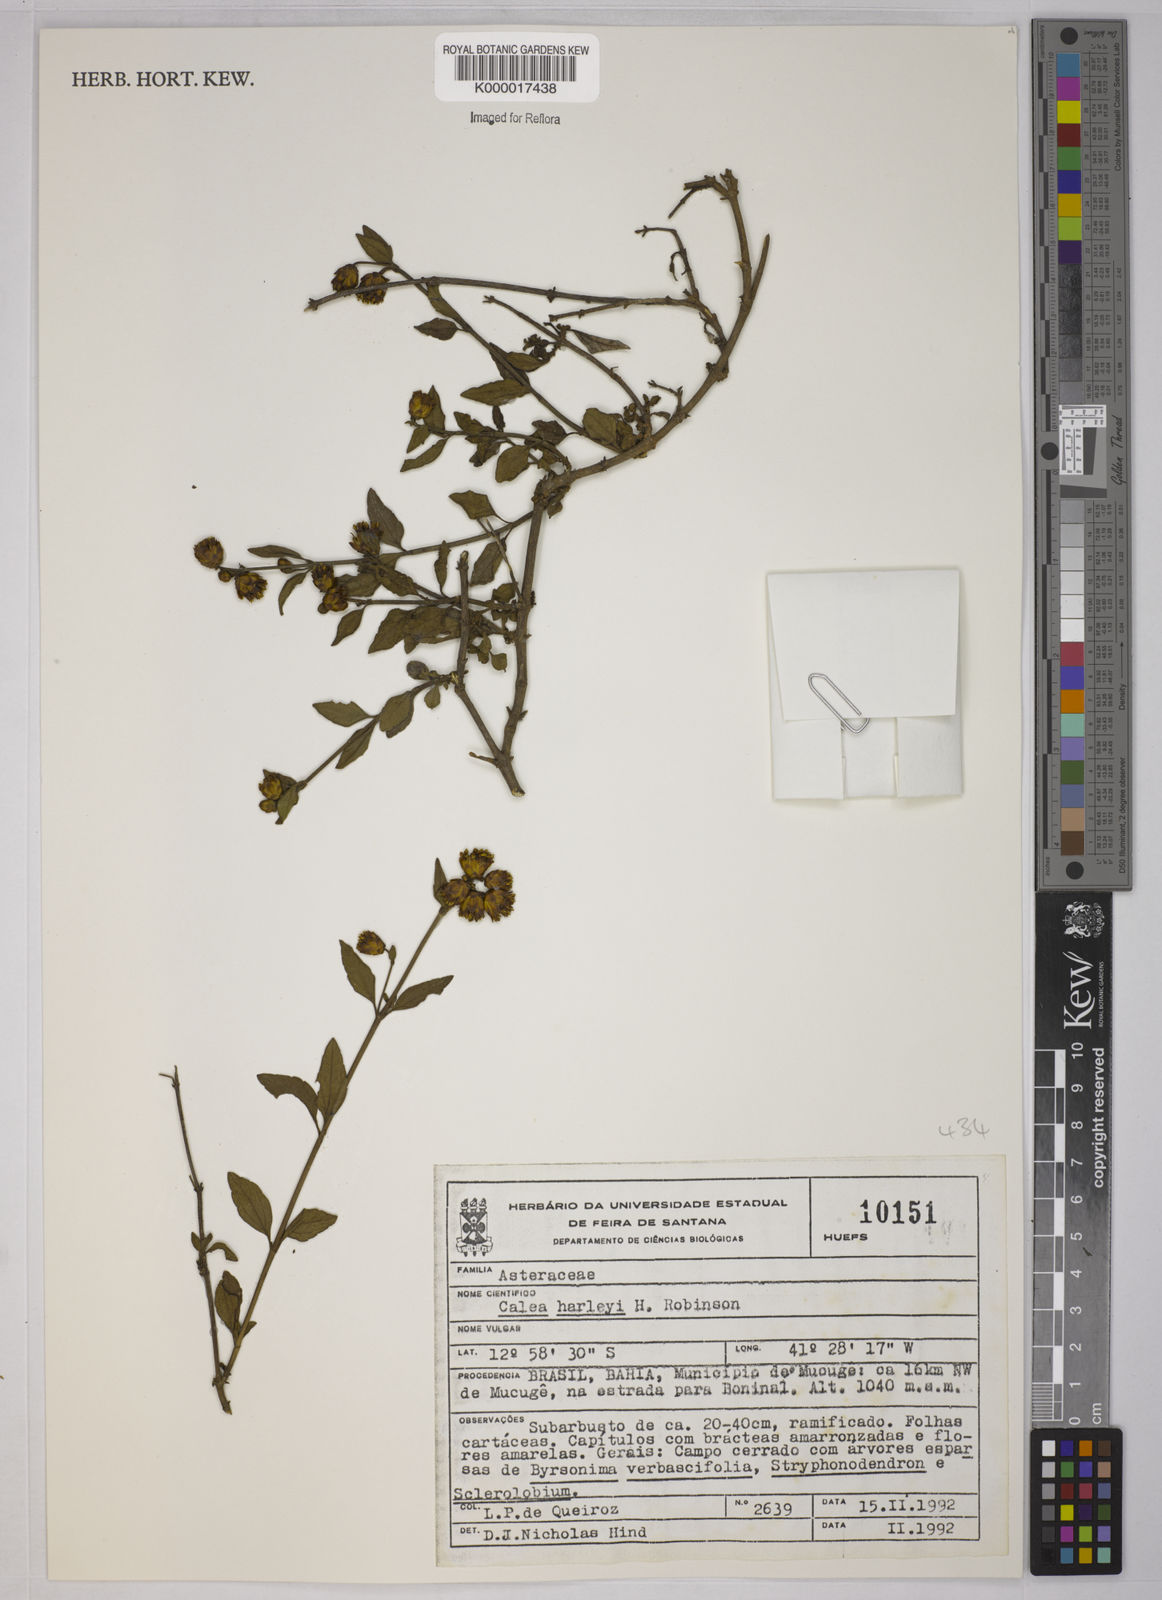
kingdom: Plantae
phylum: Tracheophyta
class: Magnoliopsida
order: Asterales
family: Asteraceae
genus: Calea
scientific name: Calea harleyi
